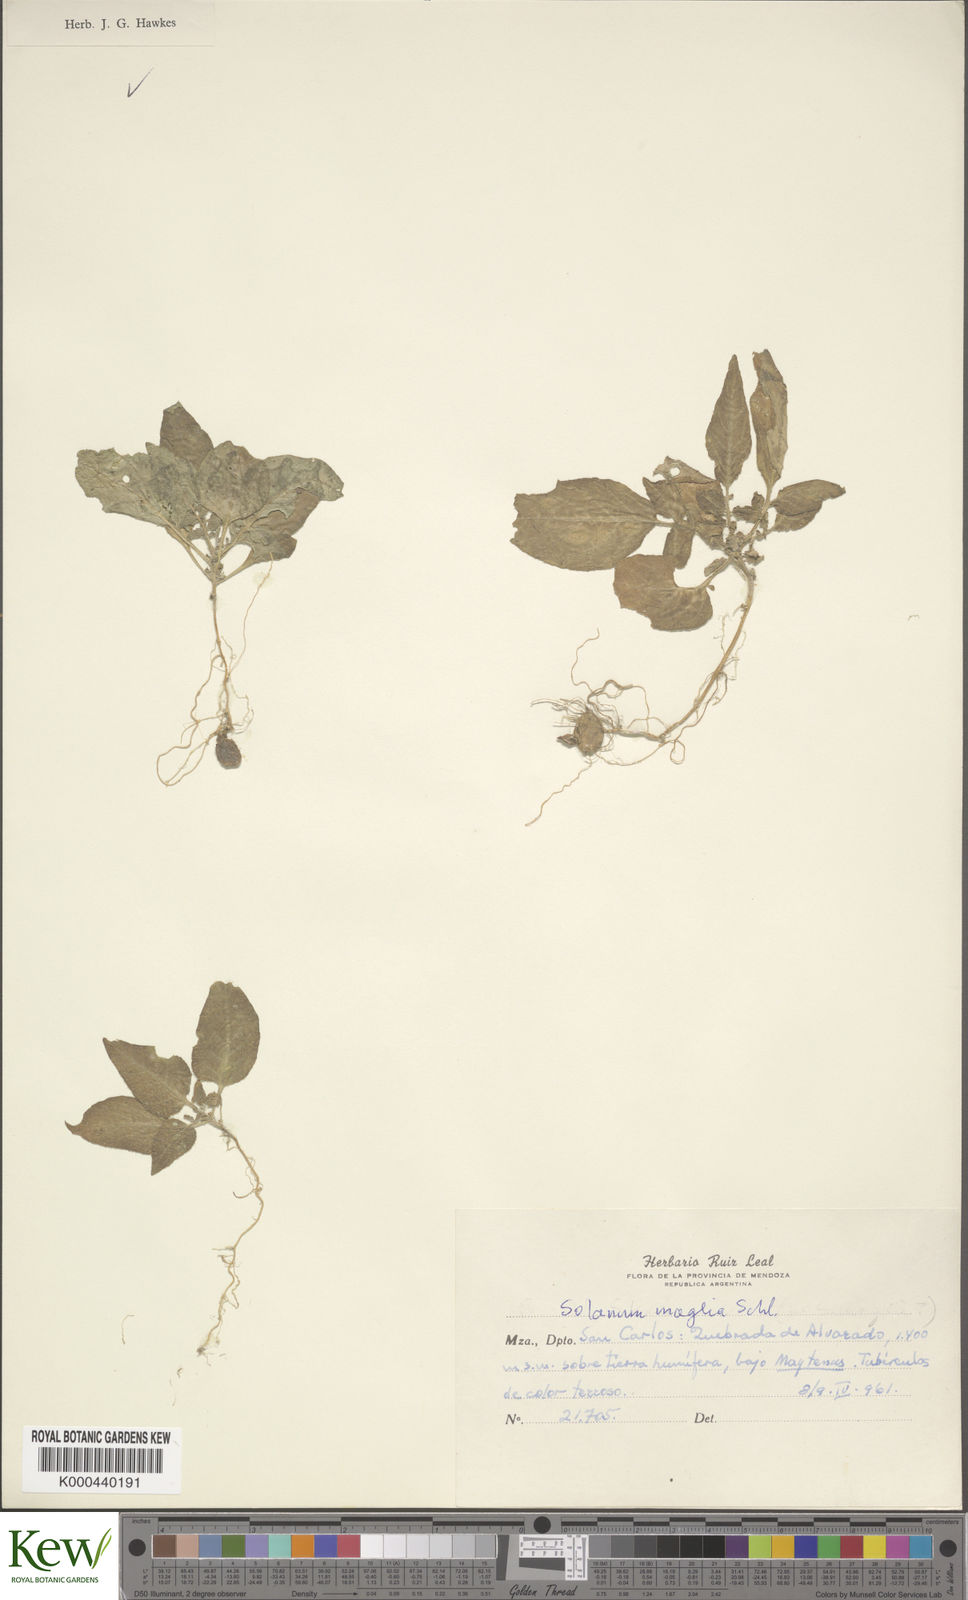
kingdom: Plantae
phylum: Tracheophyta
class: Magnoliopsida
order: Solanales
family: Solanaceae
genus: Solanum
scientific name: Solanum maglia
